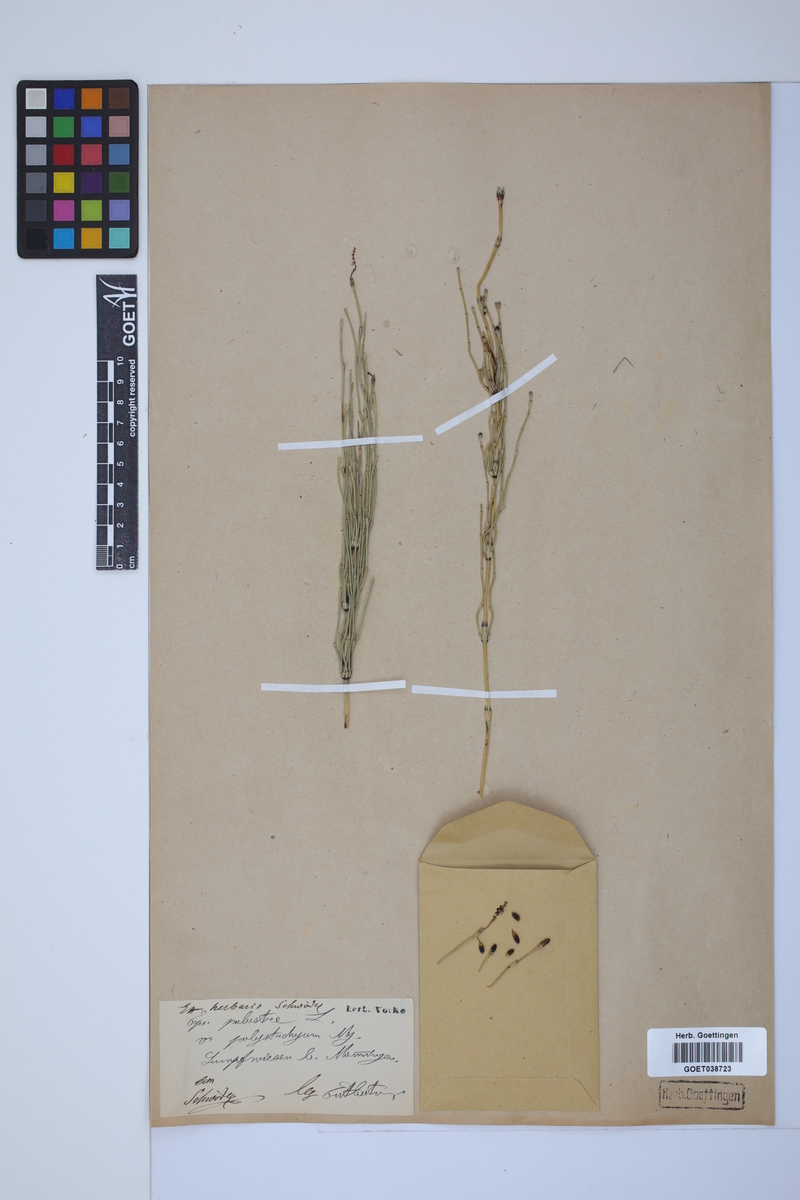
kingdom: Plantae
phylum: Tracheophyta
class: Polypodiopsida
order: Equisetales
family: Equisetaceae
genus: Equisetum
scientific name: Equisetum palustre
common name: Marsh horsetail
